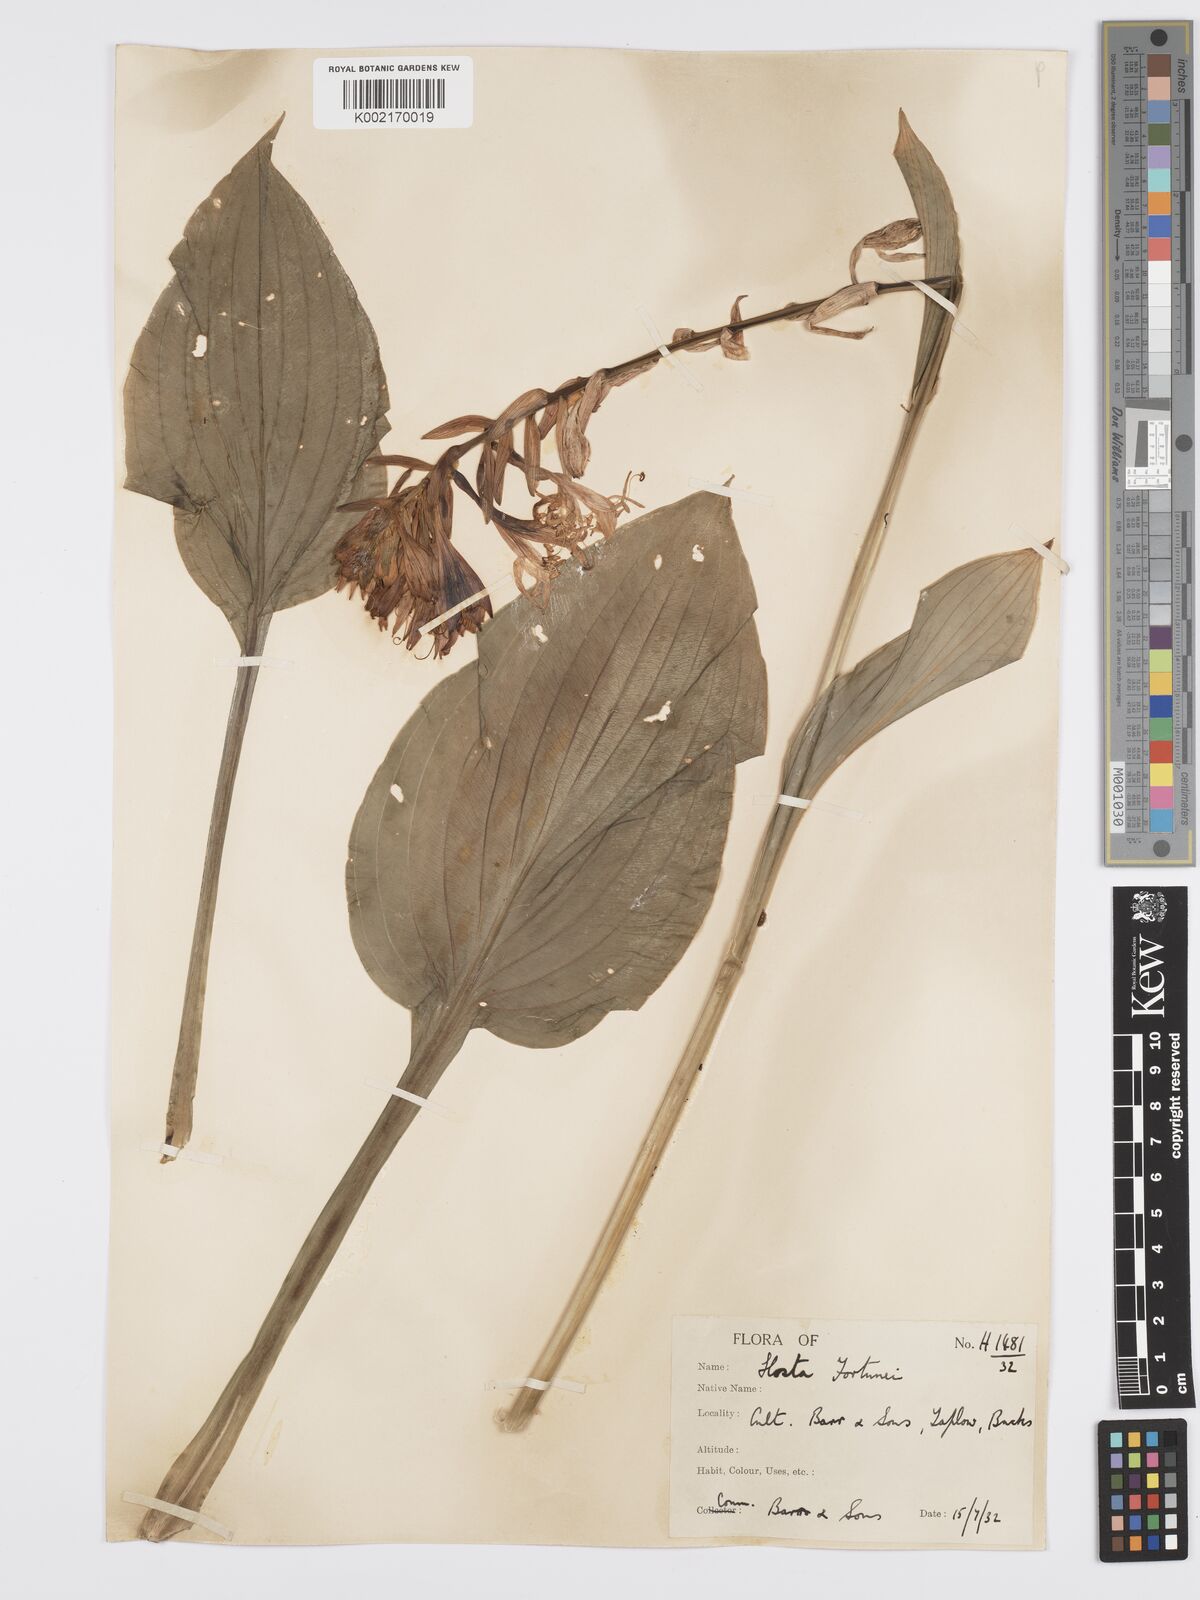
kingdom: Plantae
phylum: Tracheophyta
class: Liliopsida
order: Asparagales
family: Asparagaceae
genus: Hosta
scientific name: Hosta sieboldiana
